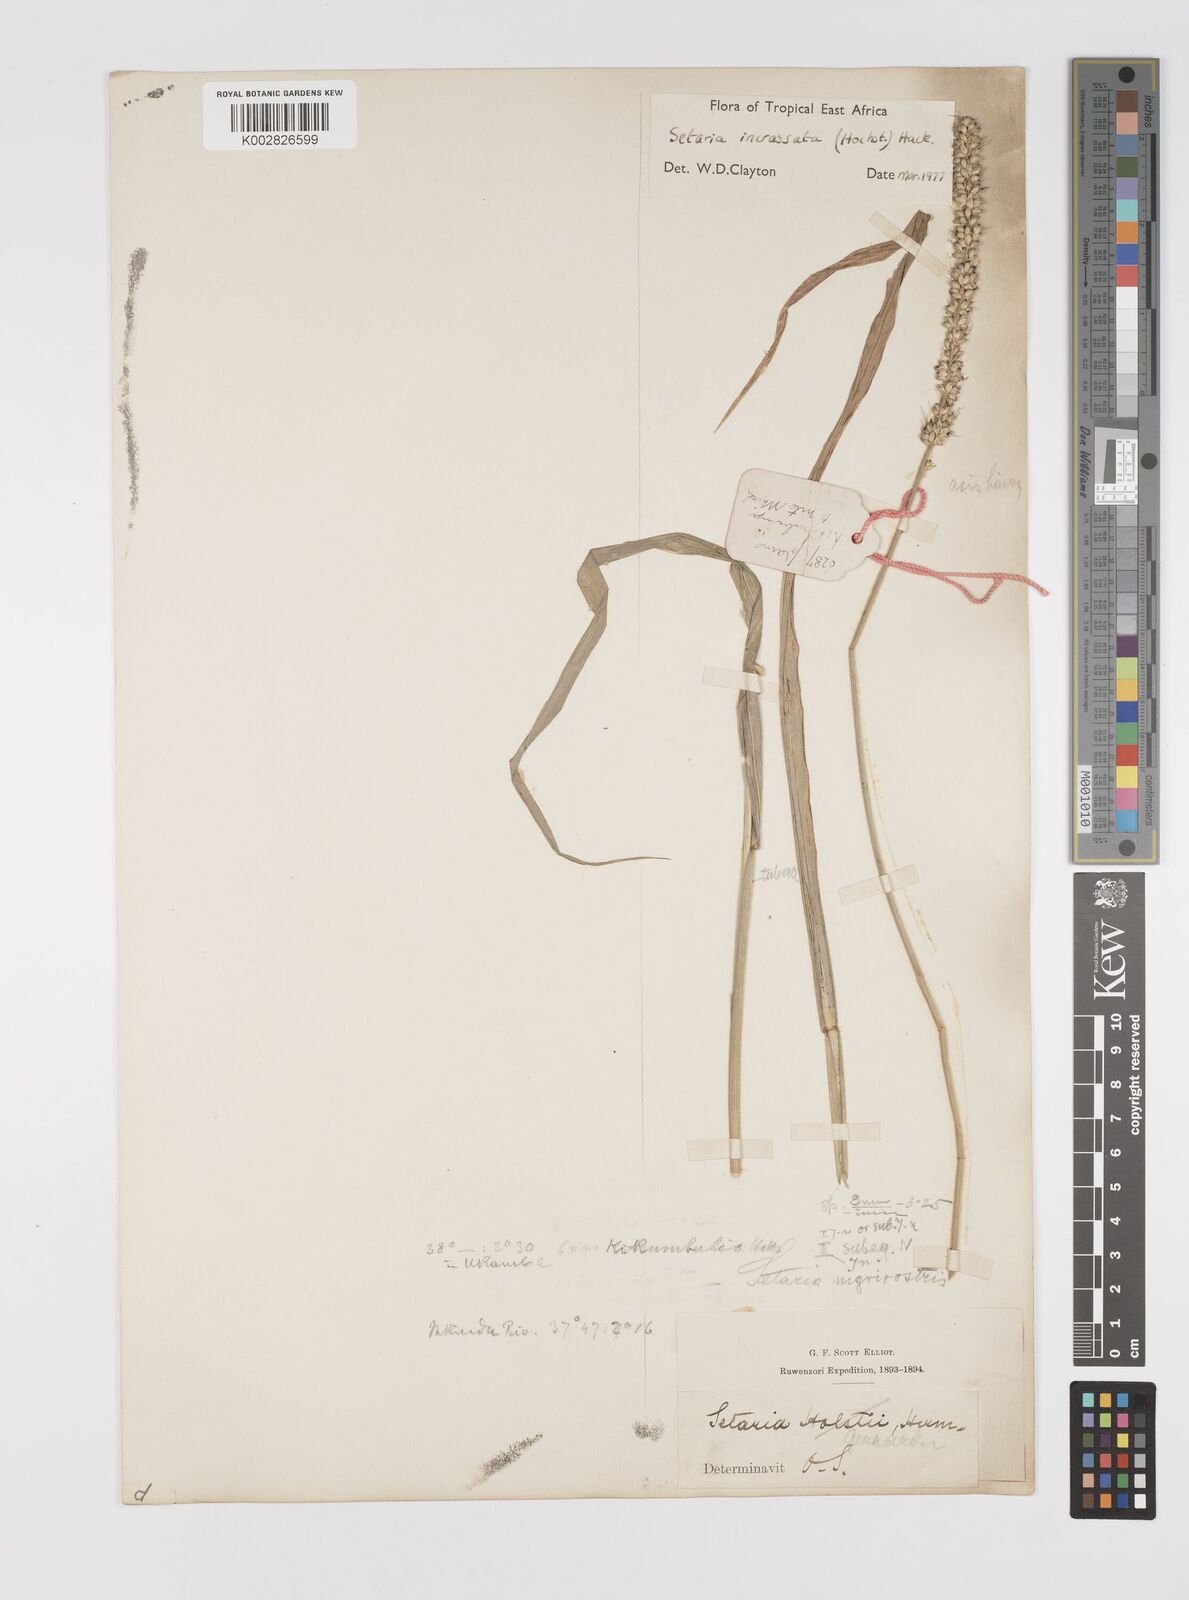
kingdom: Plantae
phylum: Tracheophyta
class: Liliopsida
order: Poales
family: Poaceae
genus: Setaria
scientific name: Setaria incrassata
